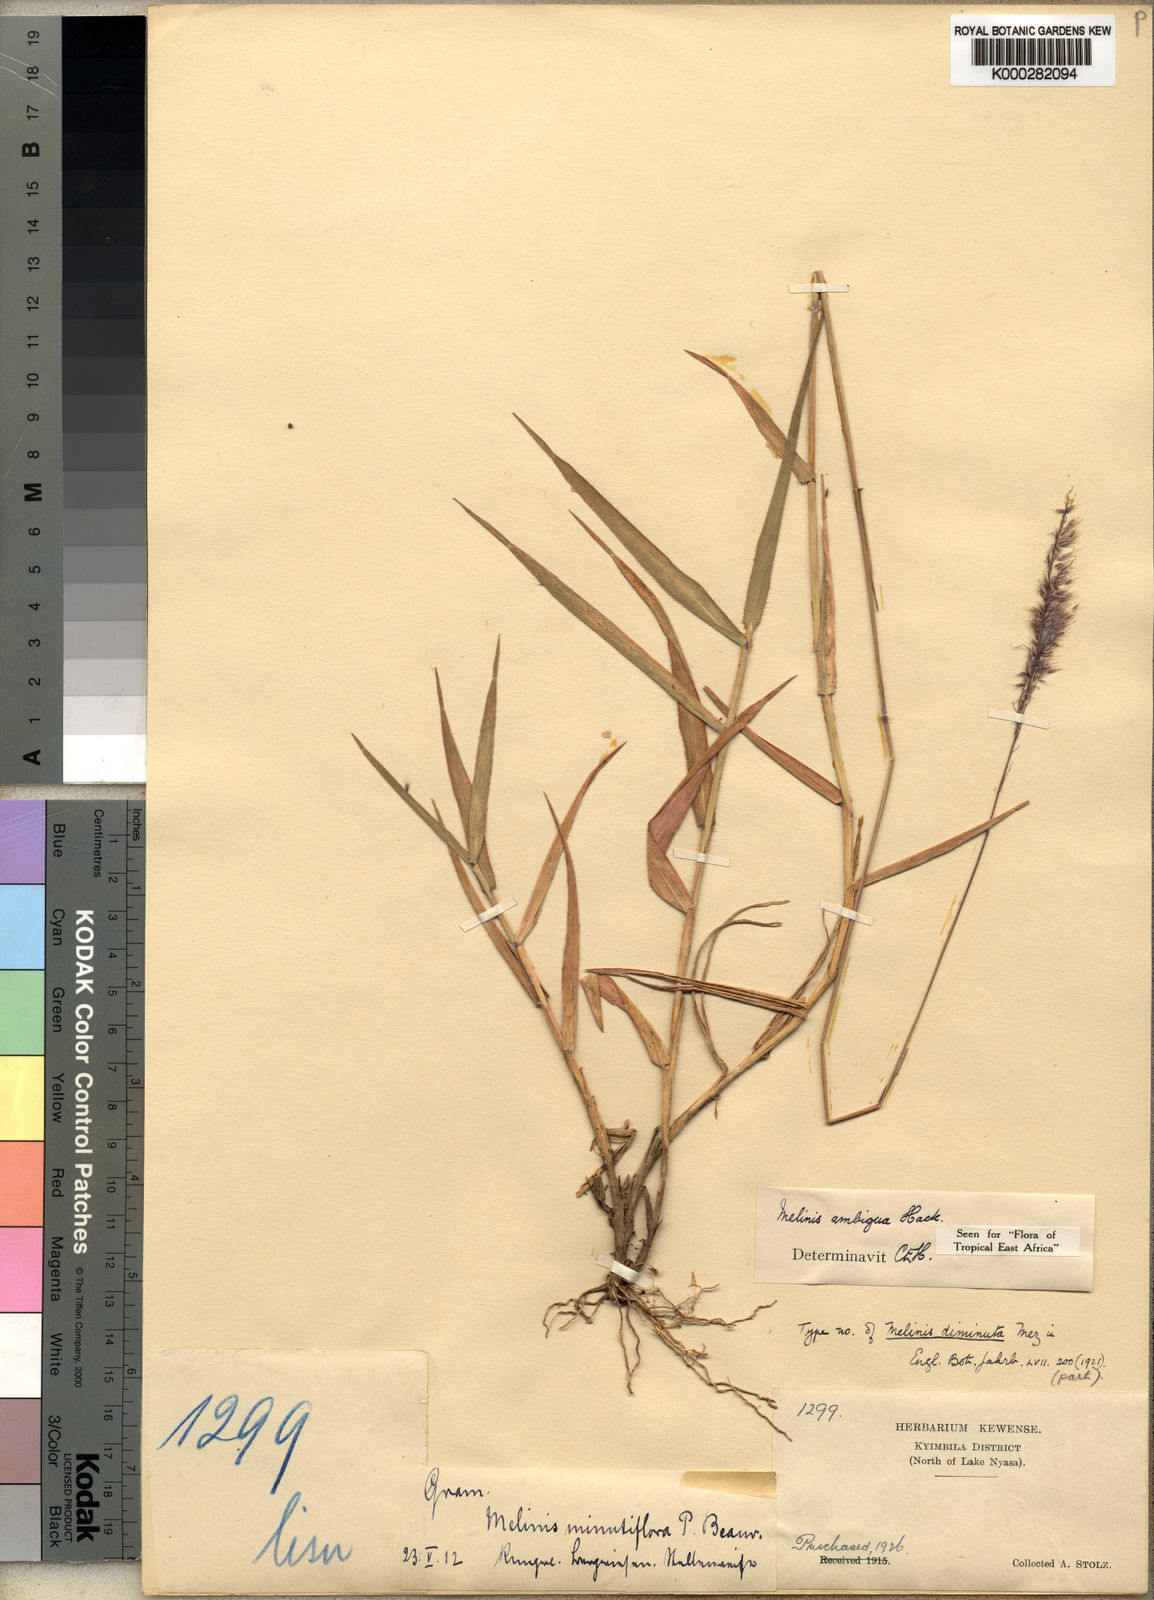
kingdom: Plantae
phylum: Tracheophyta
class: Liliopsida
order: Poales
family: Poaceae
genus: Melinis
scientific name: Melinis ambigua
